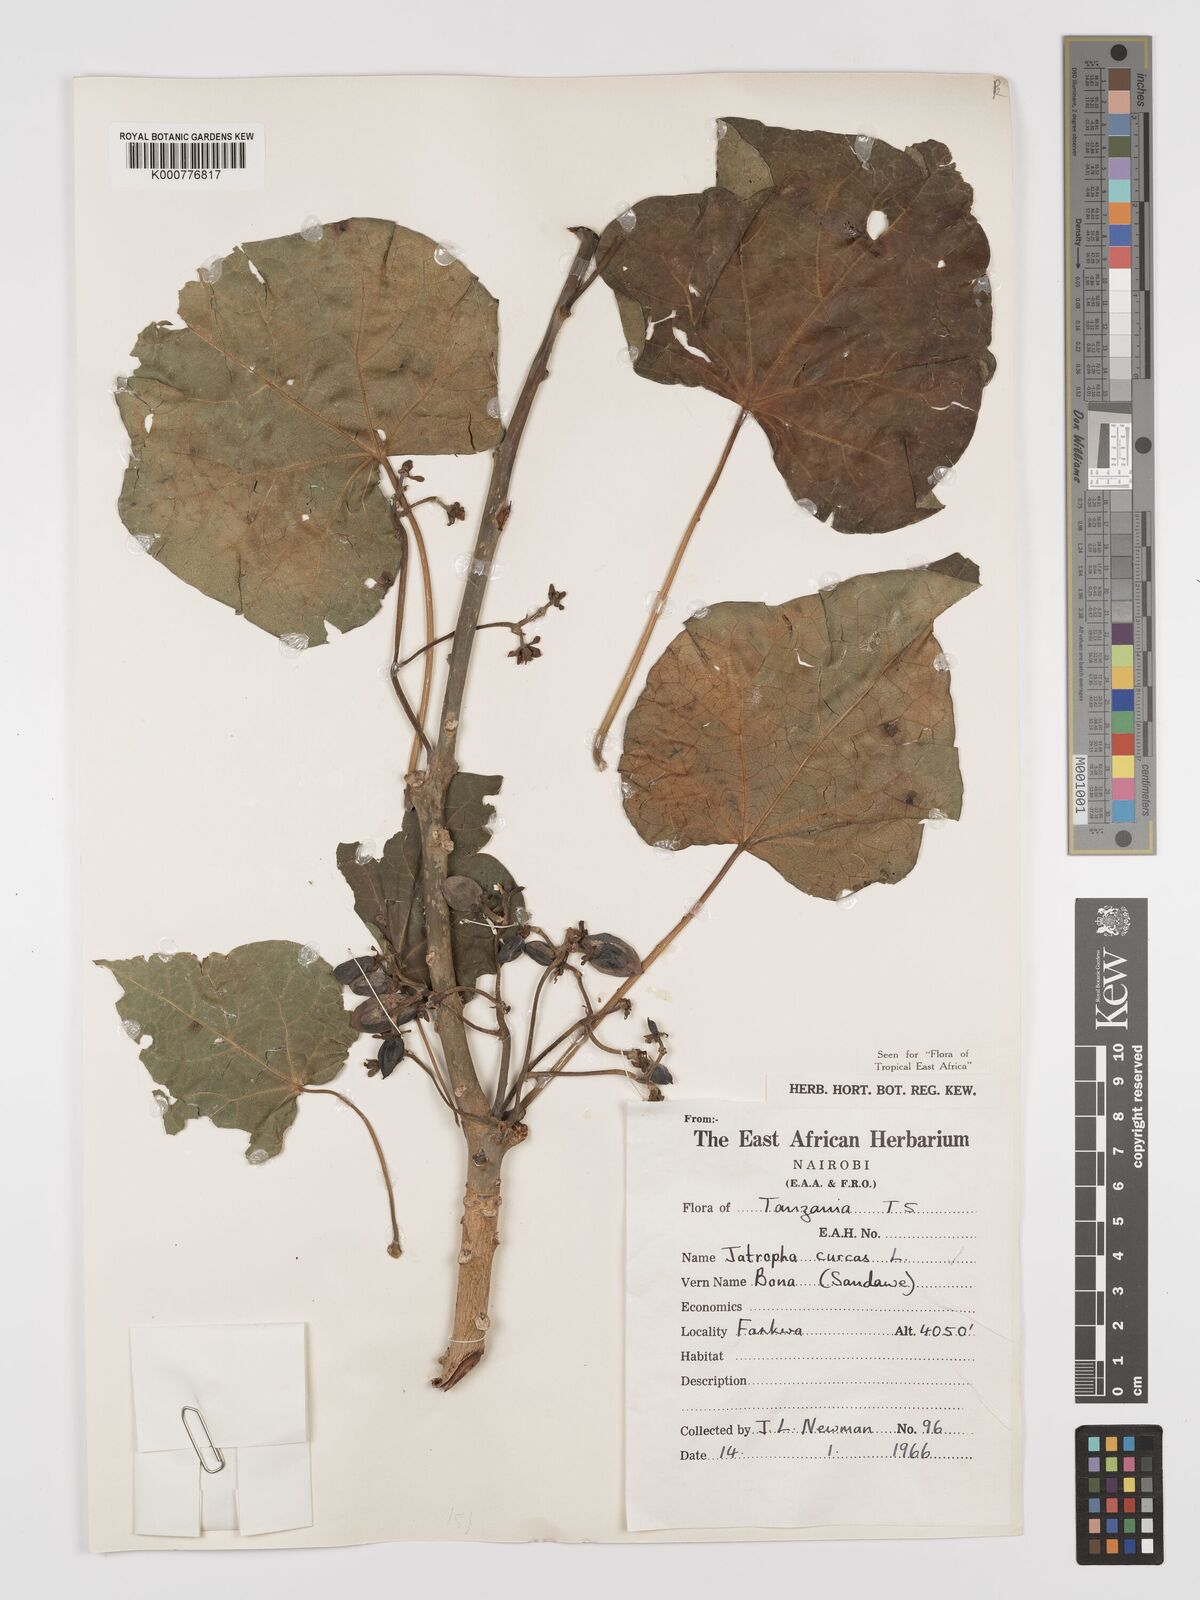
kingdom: Plantae
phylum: Tracheophyta
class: Magnoliopsida
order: Malpighiales
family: Euphorbiaceae
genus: Jatropha
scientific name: Jatropha curcas
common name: Barbados nut
